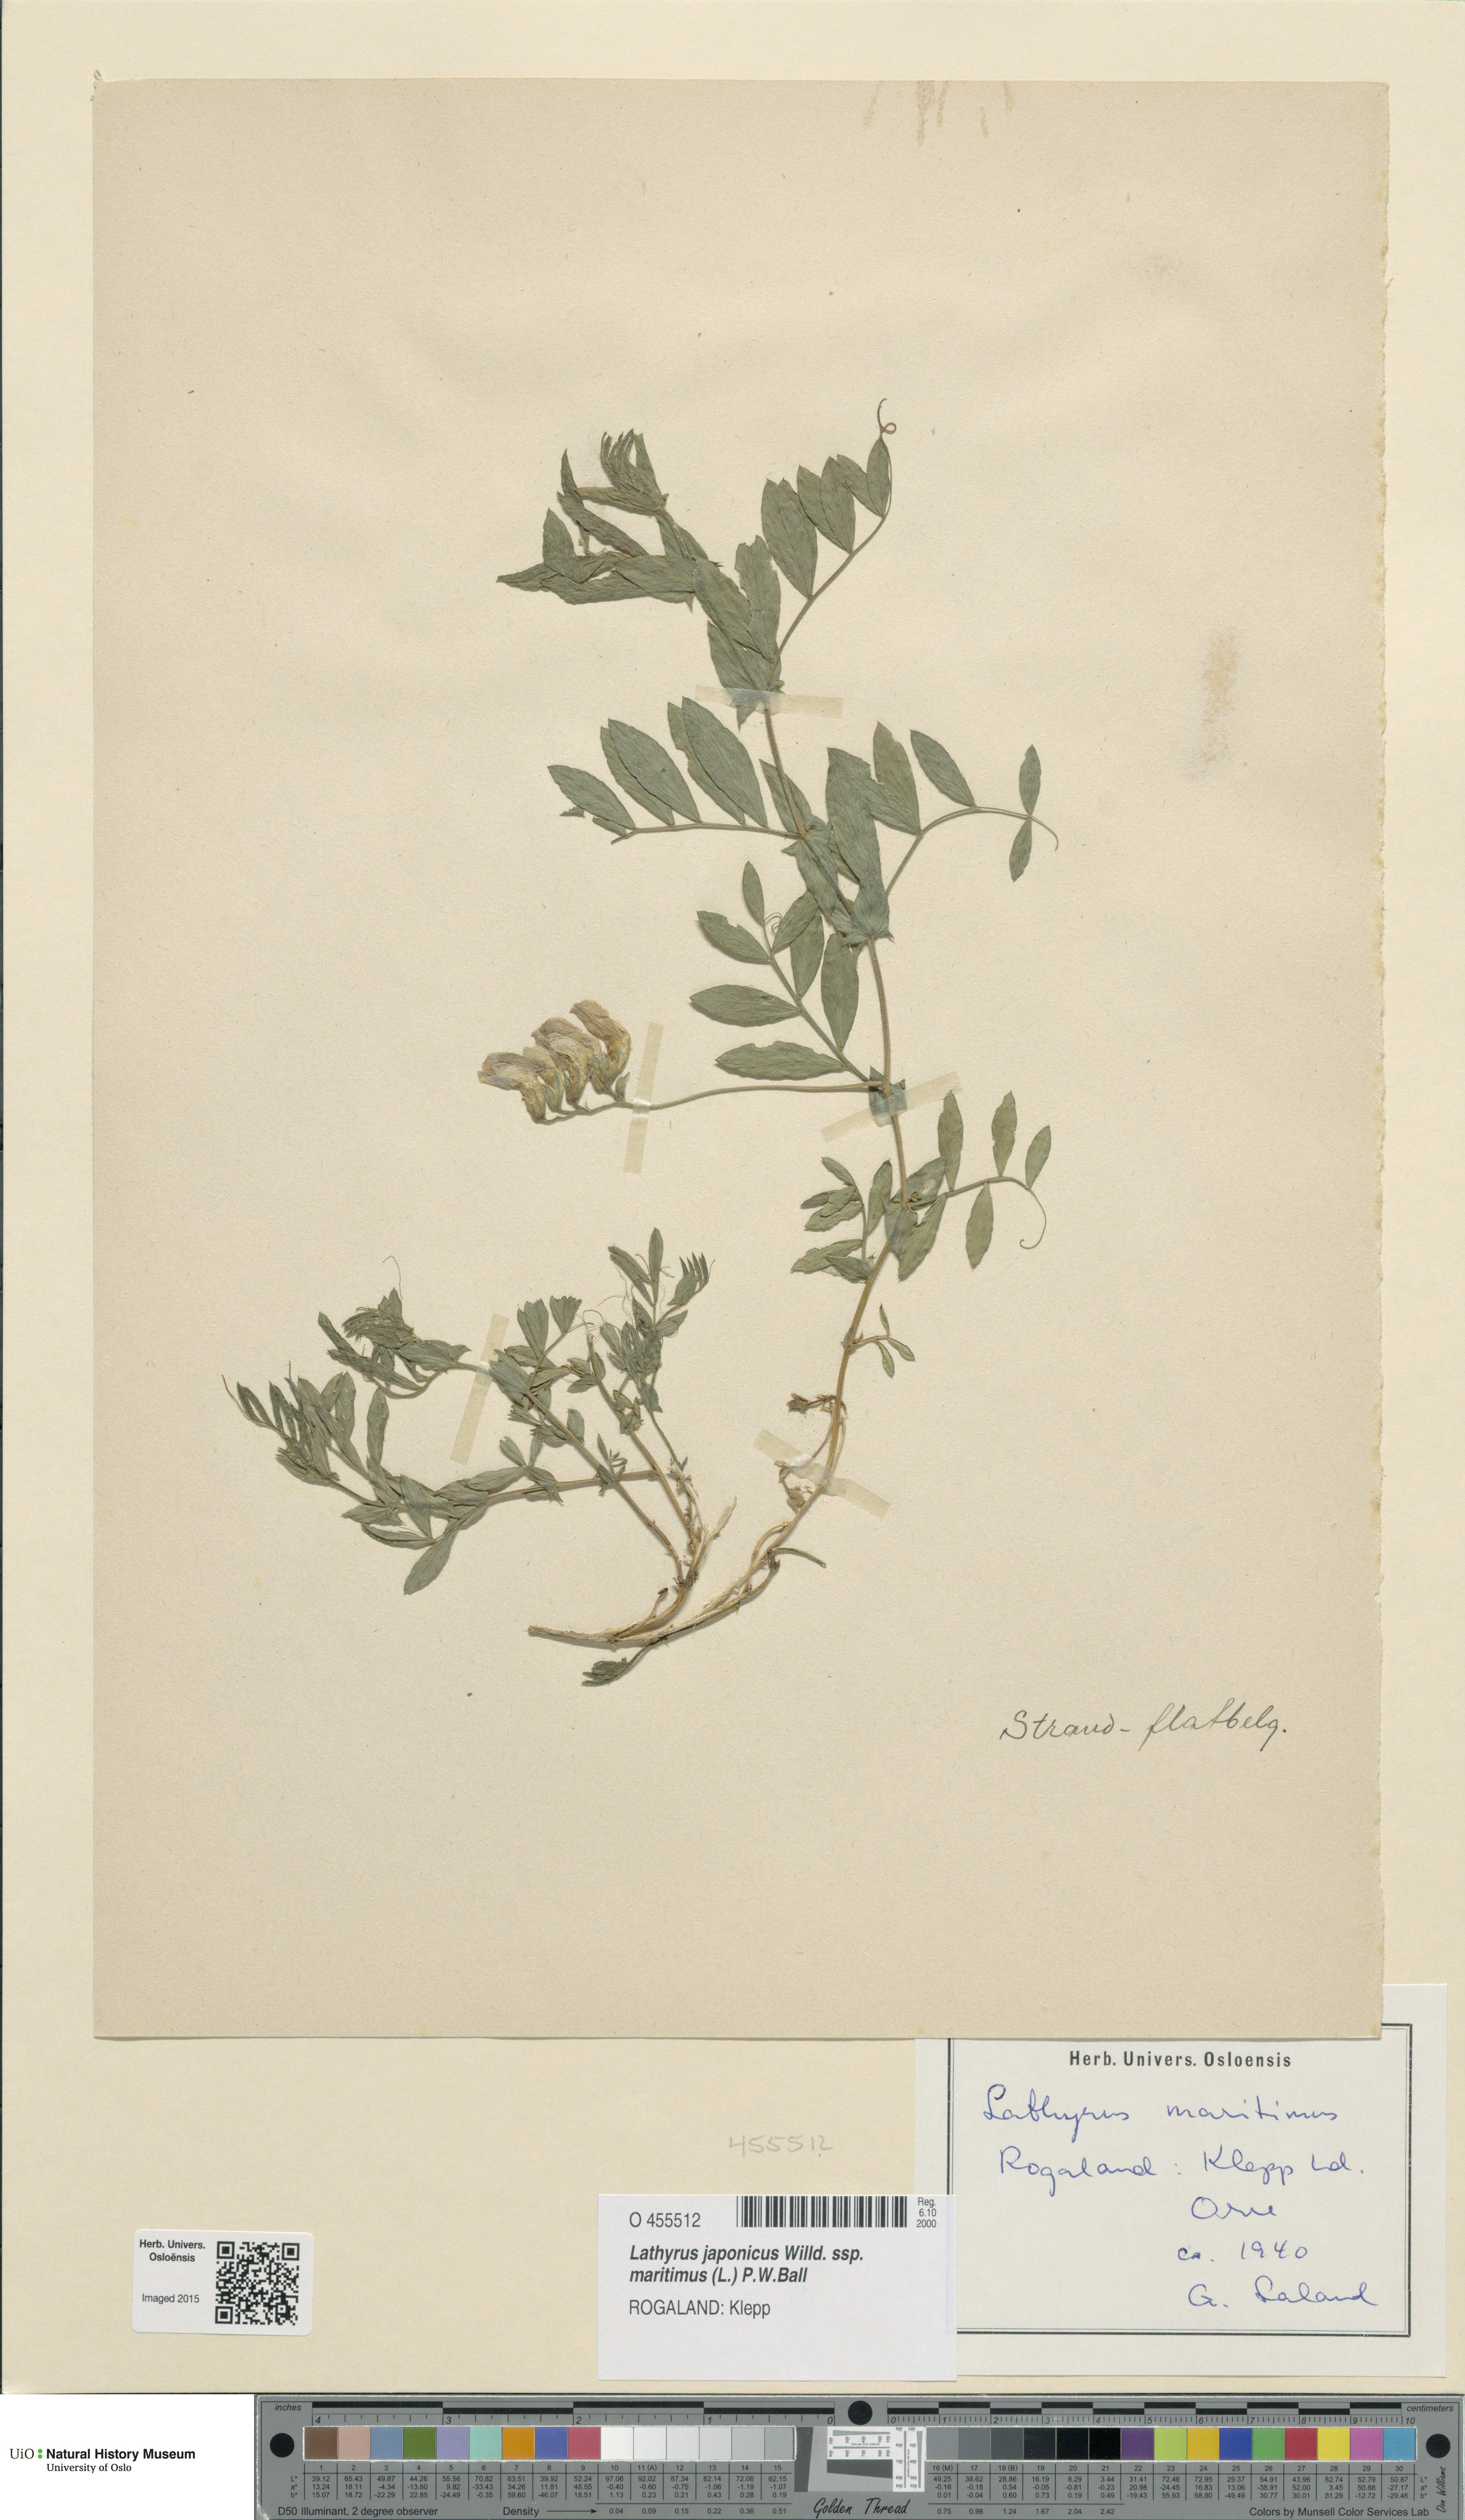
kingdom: Plantae
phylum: Tracheophyta
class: Magnoliopsida
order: Fabales
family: Fabaceae
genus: Lathyrus
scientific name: Lathyrus japonicus
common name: Sea pea
